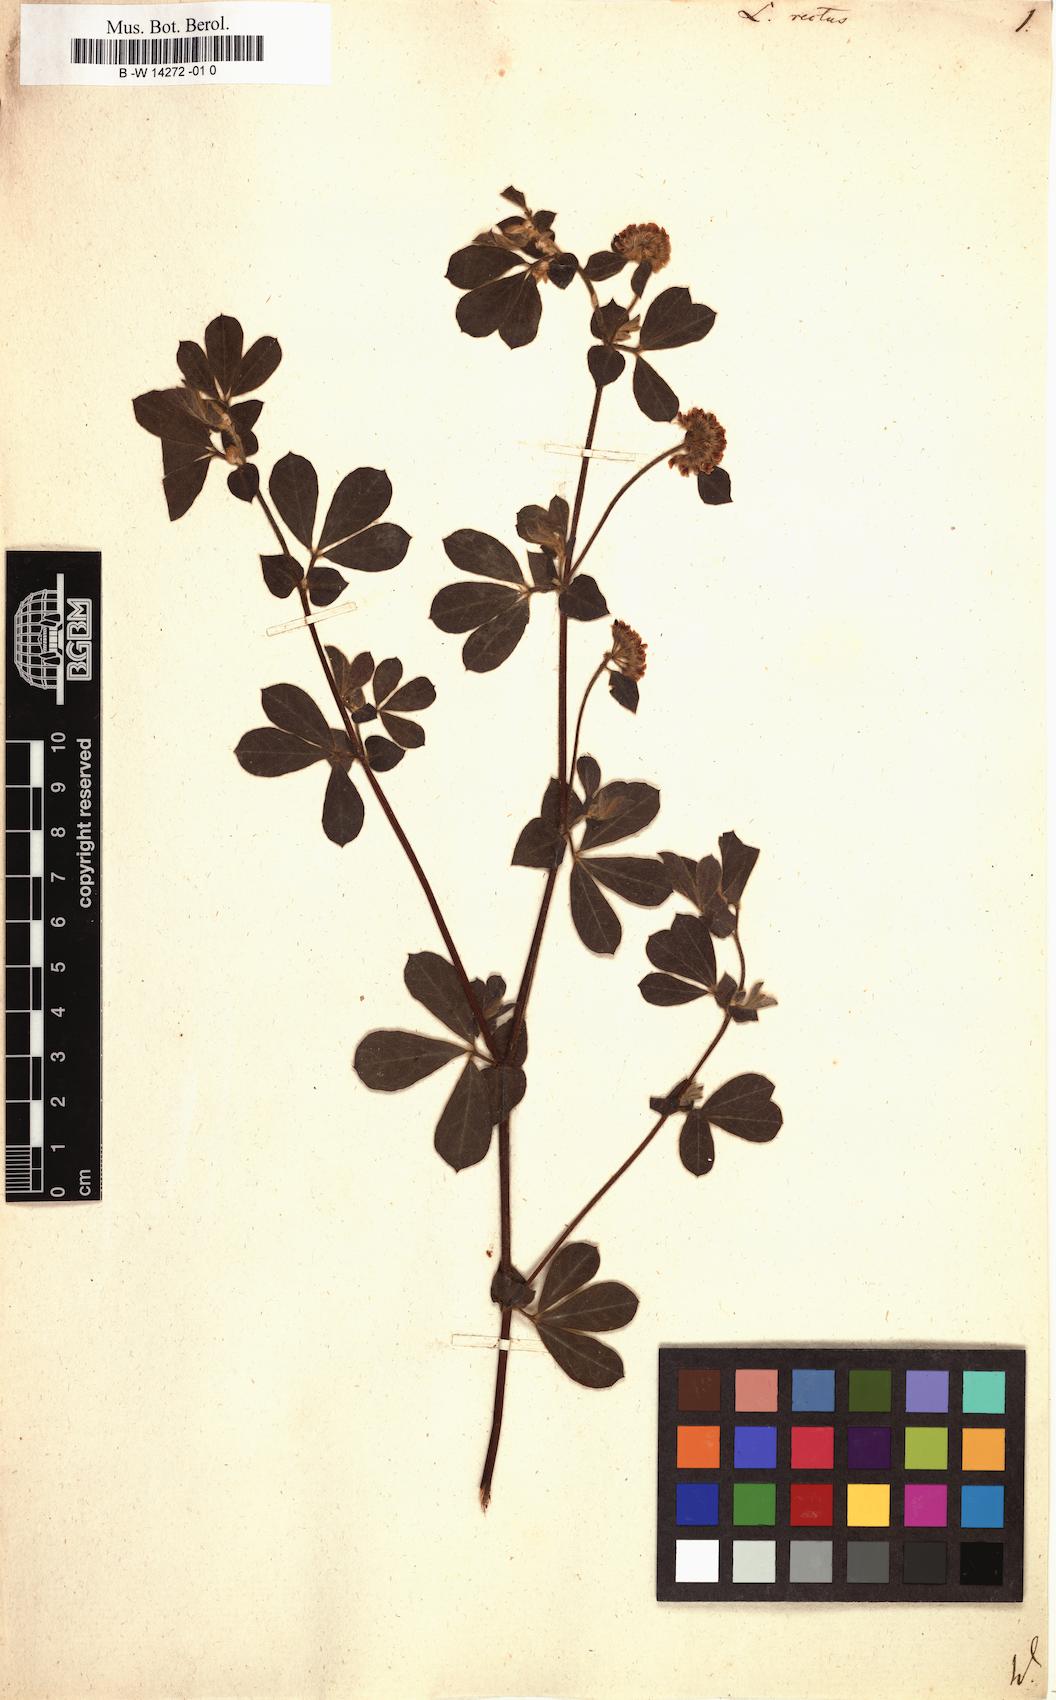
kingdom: Plantae
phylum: Tracheophyta
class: Magnoliopsida
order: Fabales
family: Fabaceae
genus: Lotus
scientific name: Lotus rectus
